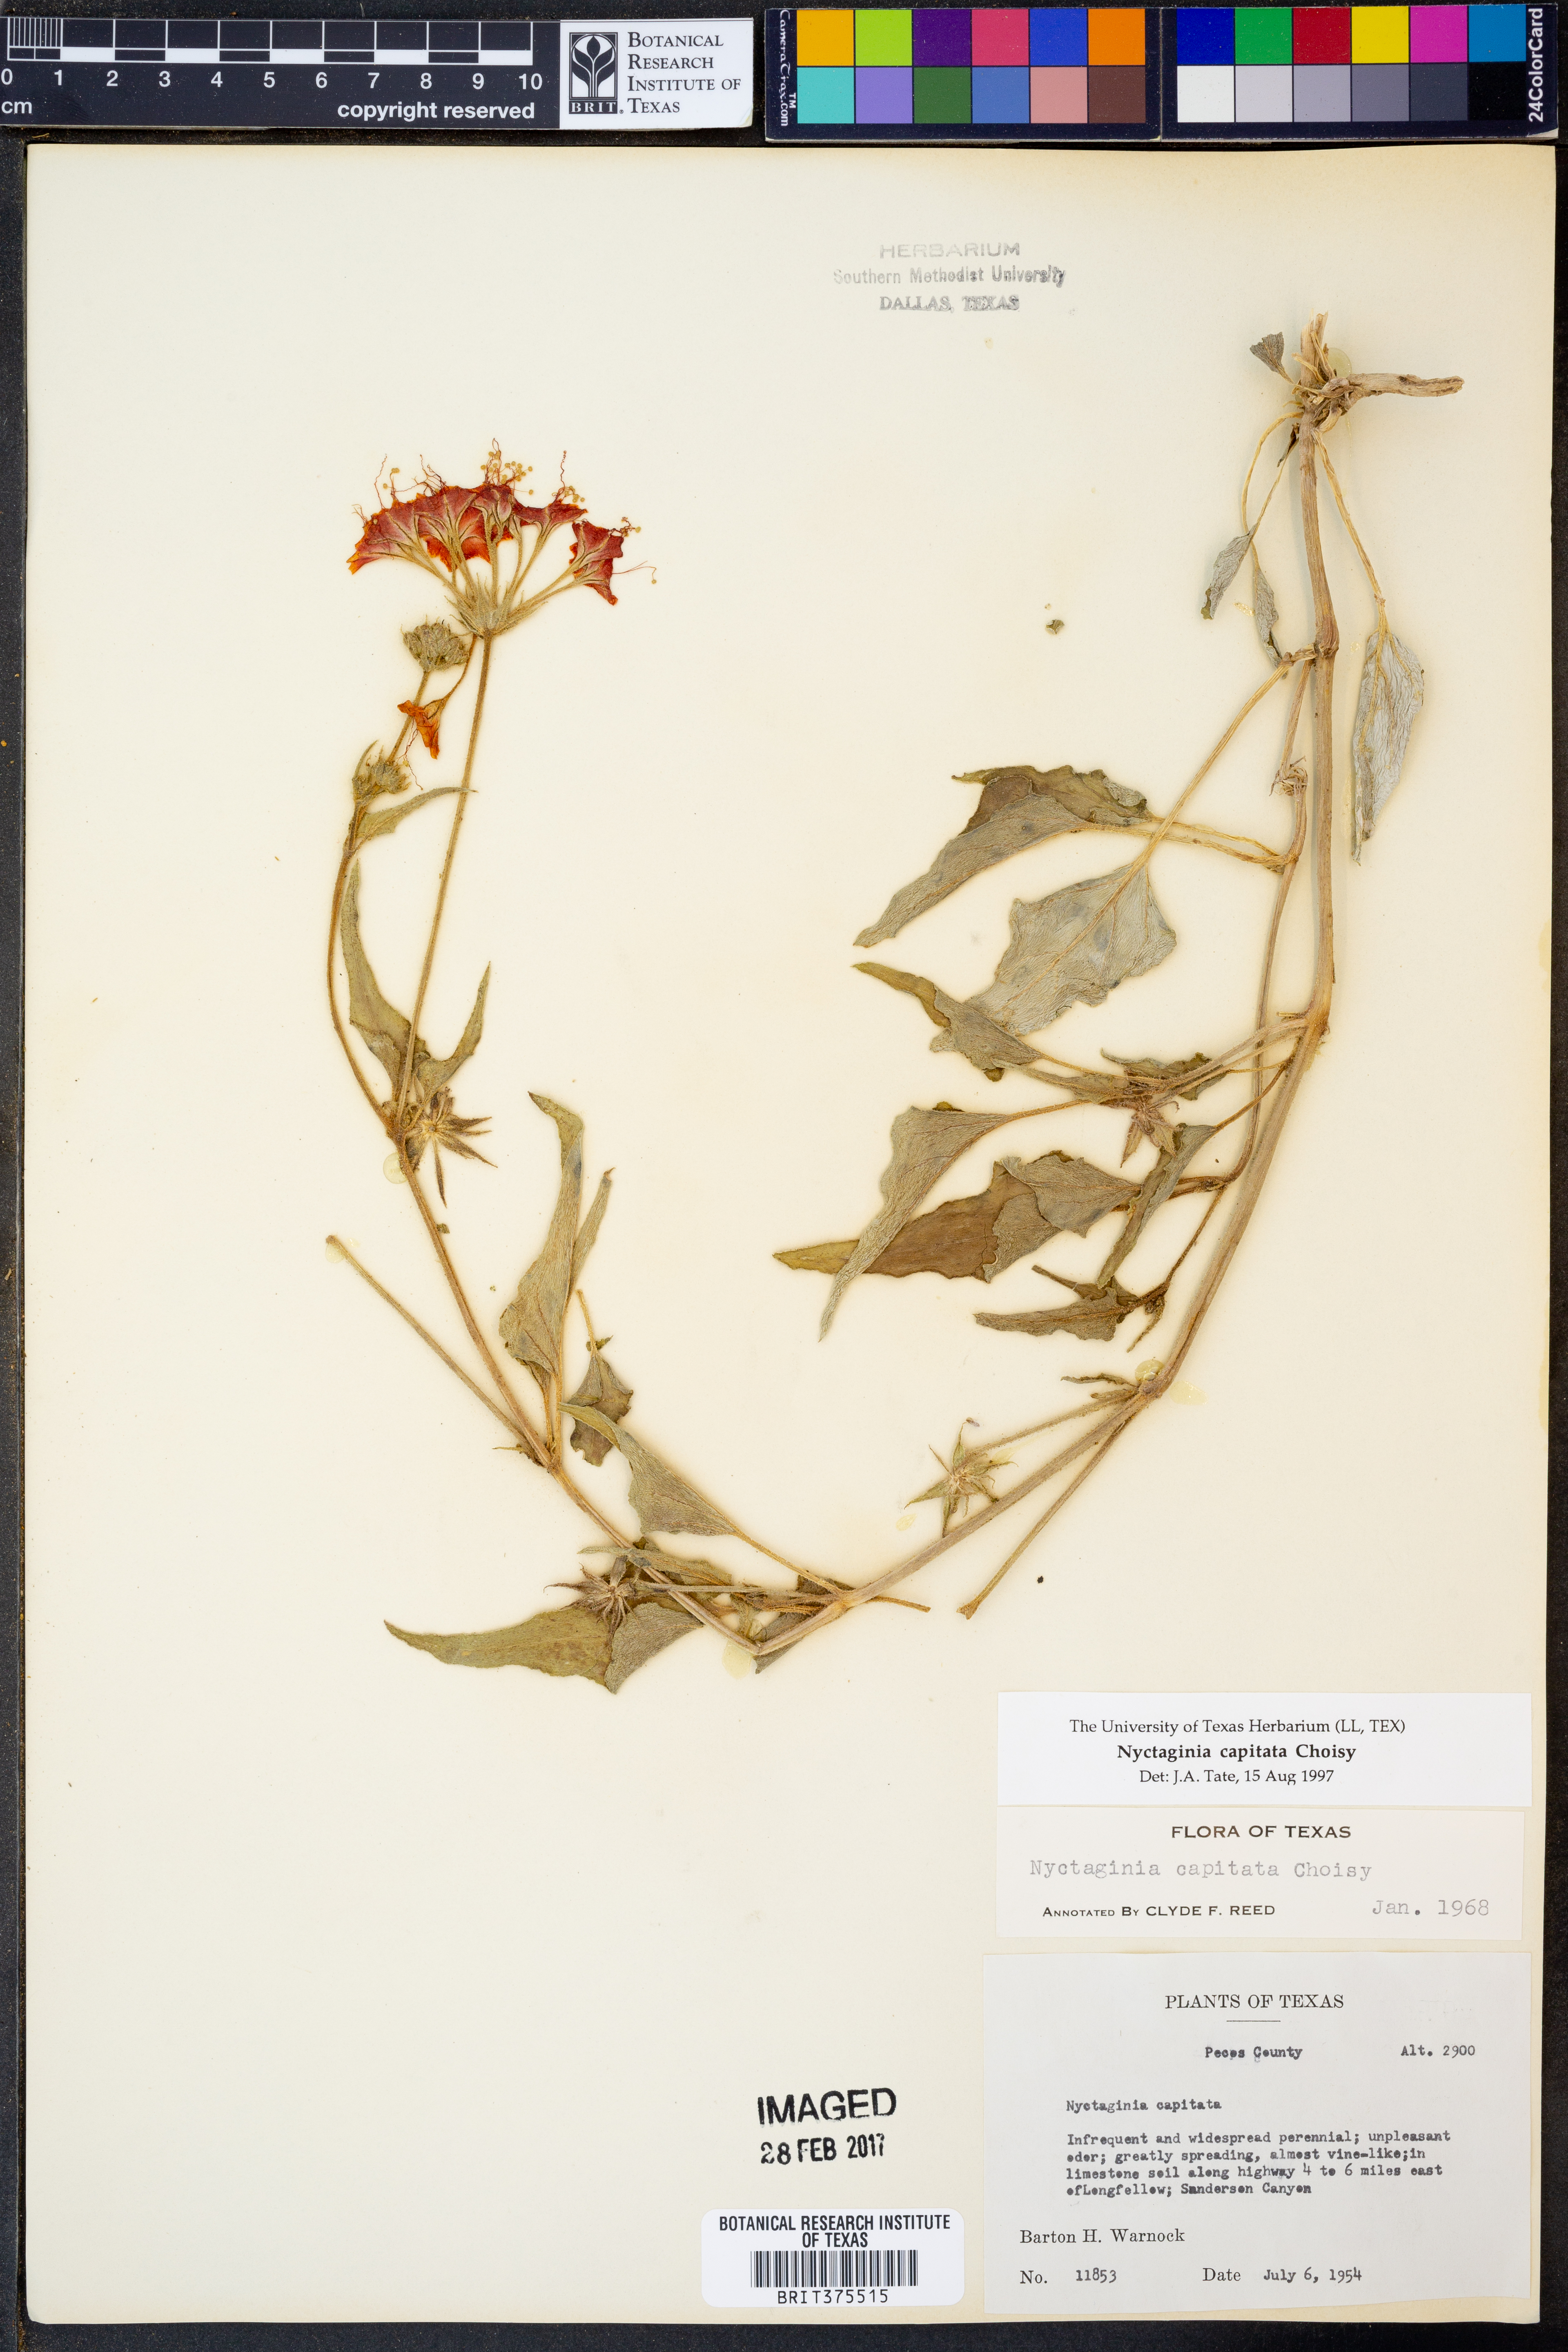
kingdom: Plantae
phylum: Tracheophyta
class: Magnoliopsida
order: Caryophyllales
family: Nyctaginaceae
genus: Nyctaginia
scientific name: Nyctaginia capitata
